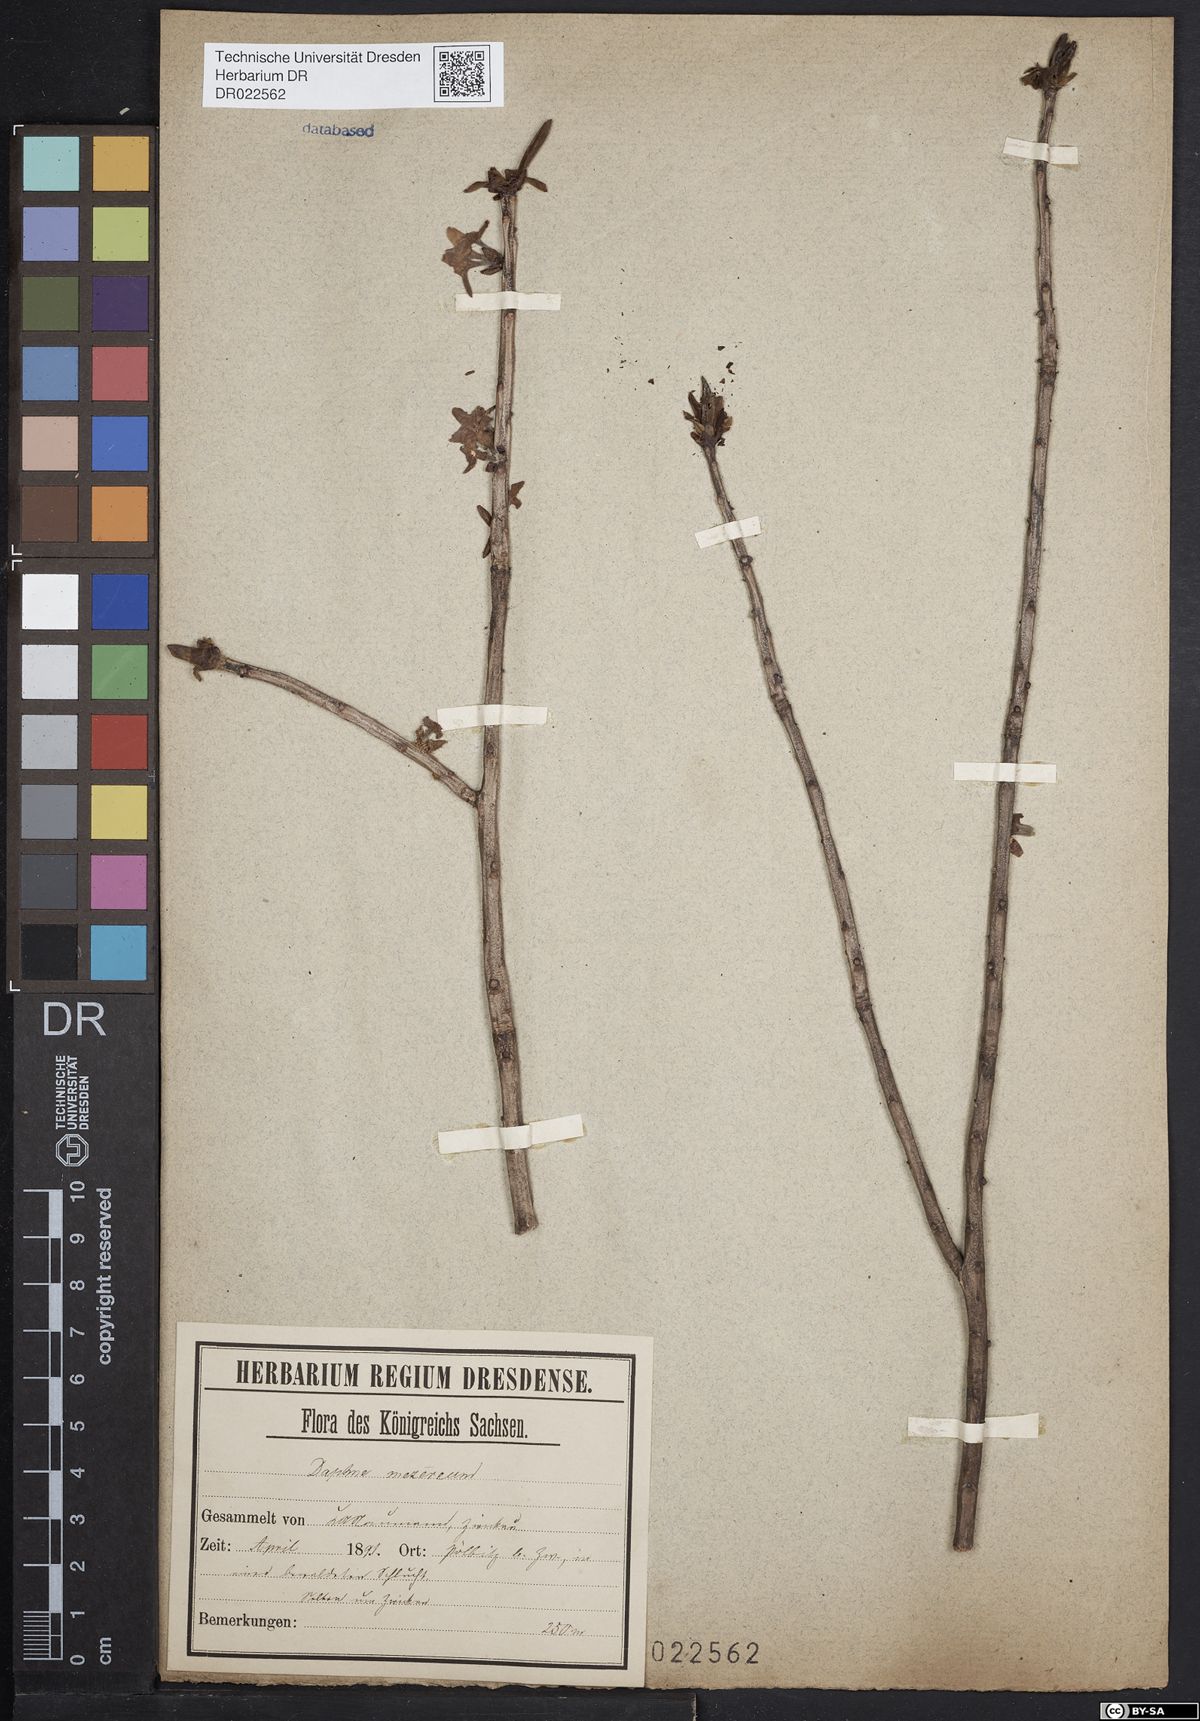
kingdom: Plantae
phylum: Tracheophyta
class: Magnoliopsida
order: Malvales
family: Thymelaeaceae
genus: Daphne
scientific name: Daphne mezereum
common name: Mezereon
